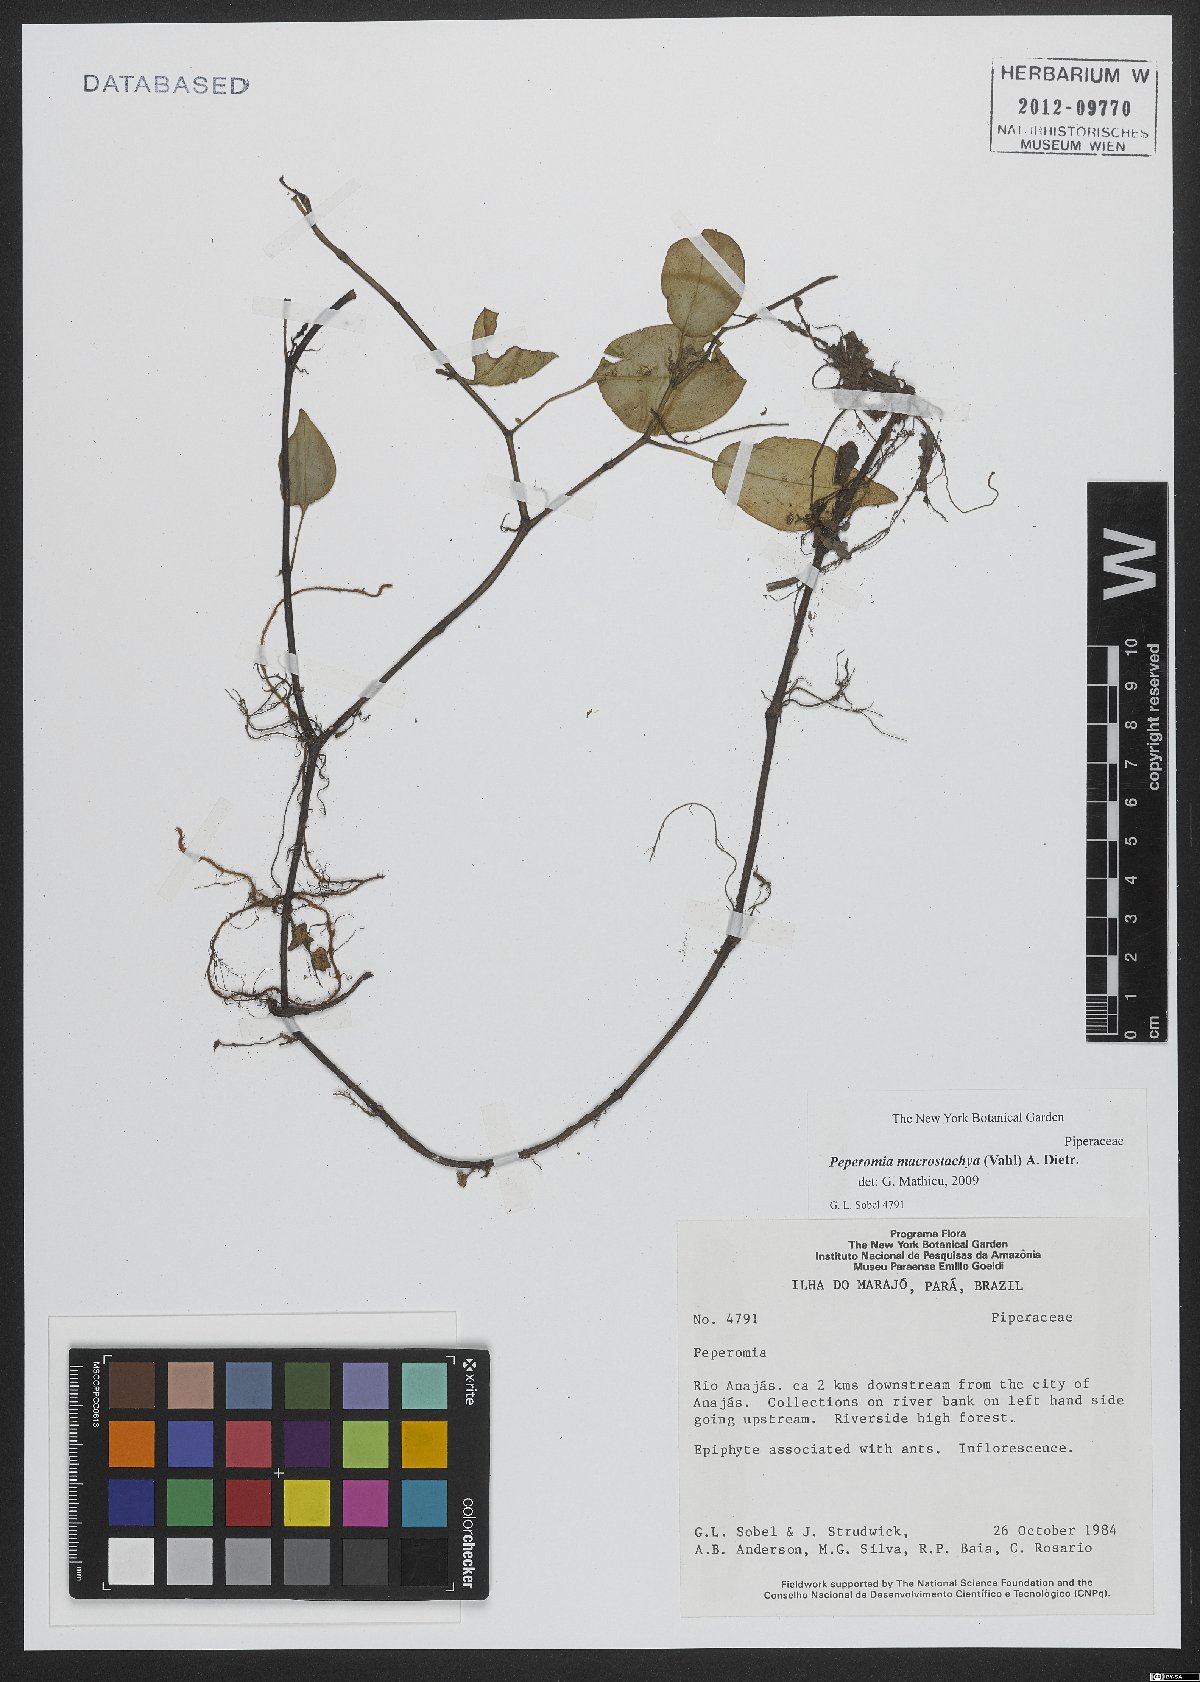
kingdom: Plantae
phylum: Tracheophyta
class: Magnoliopsida
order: Piperales
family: Piperaceae
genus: Peperomia
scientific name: Peperomia macrostachyos
